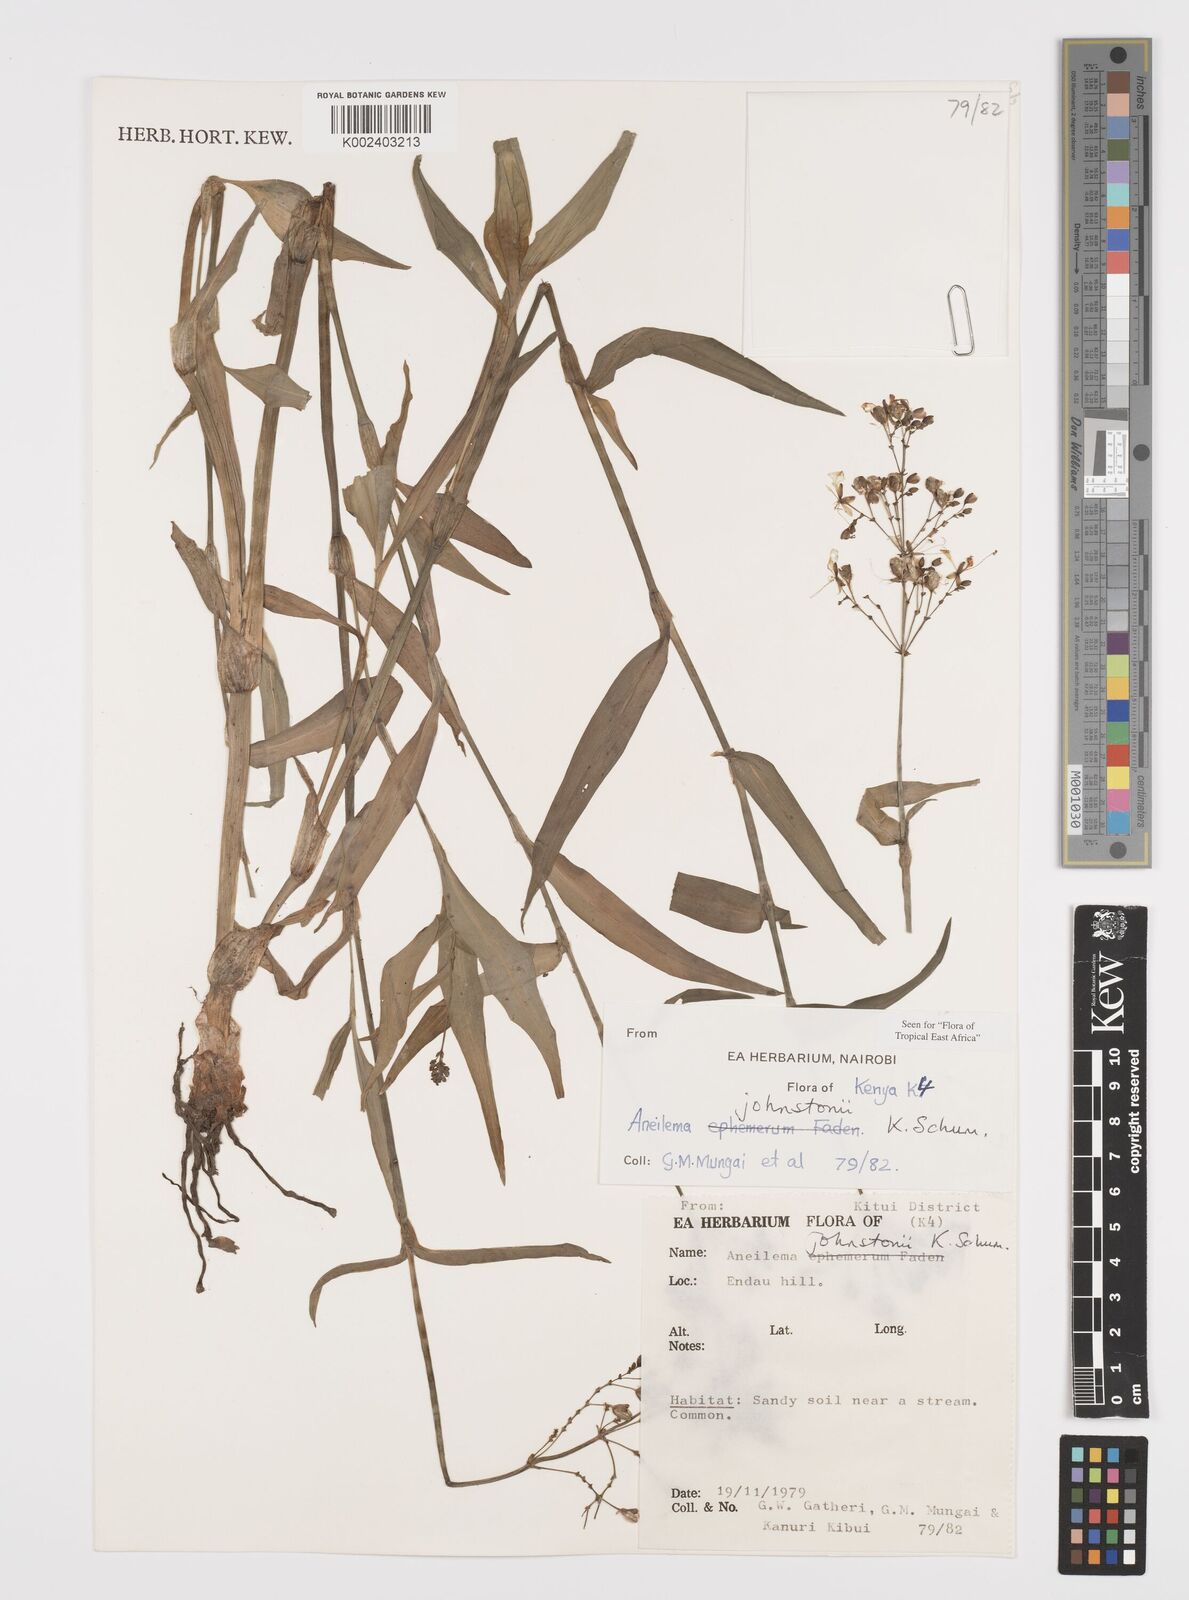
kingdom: Plantae
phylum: Tracheophyta
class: Liliopsida
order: Commelinales
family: Commelinaceae
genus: Aneilema
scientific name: Aneilema johnstonii
